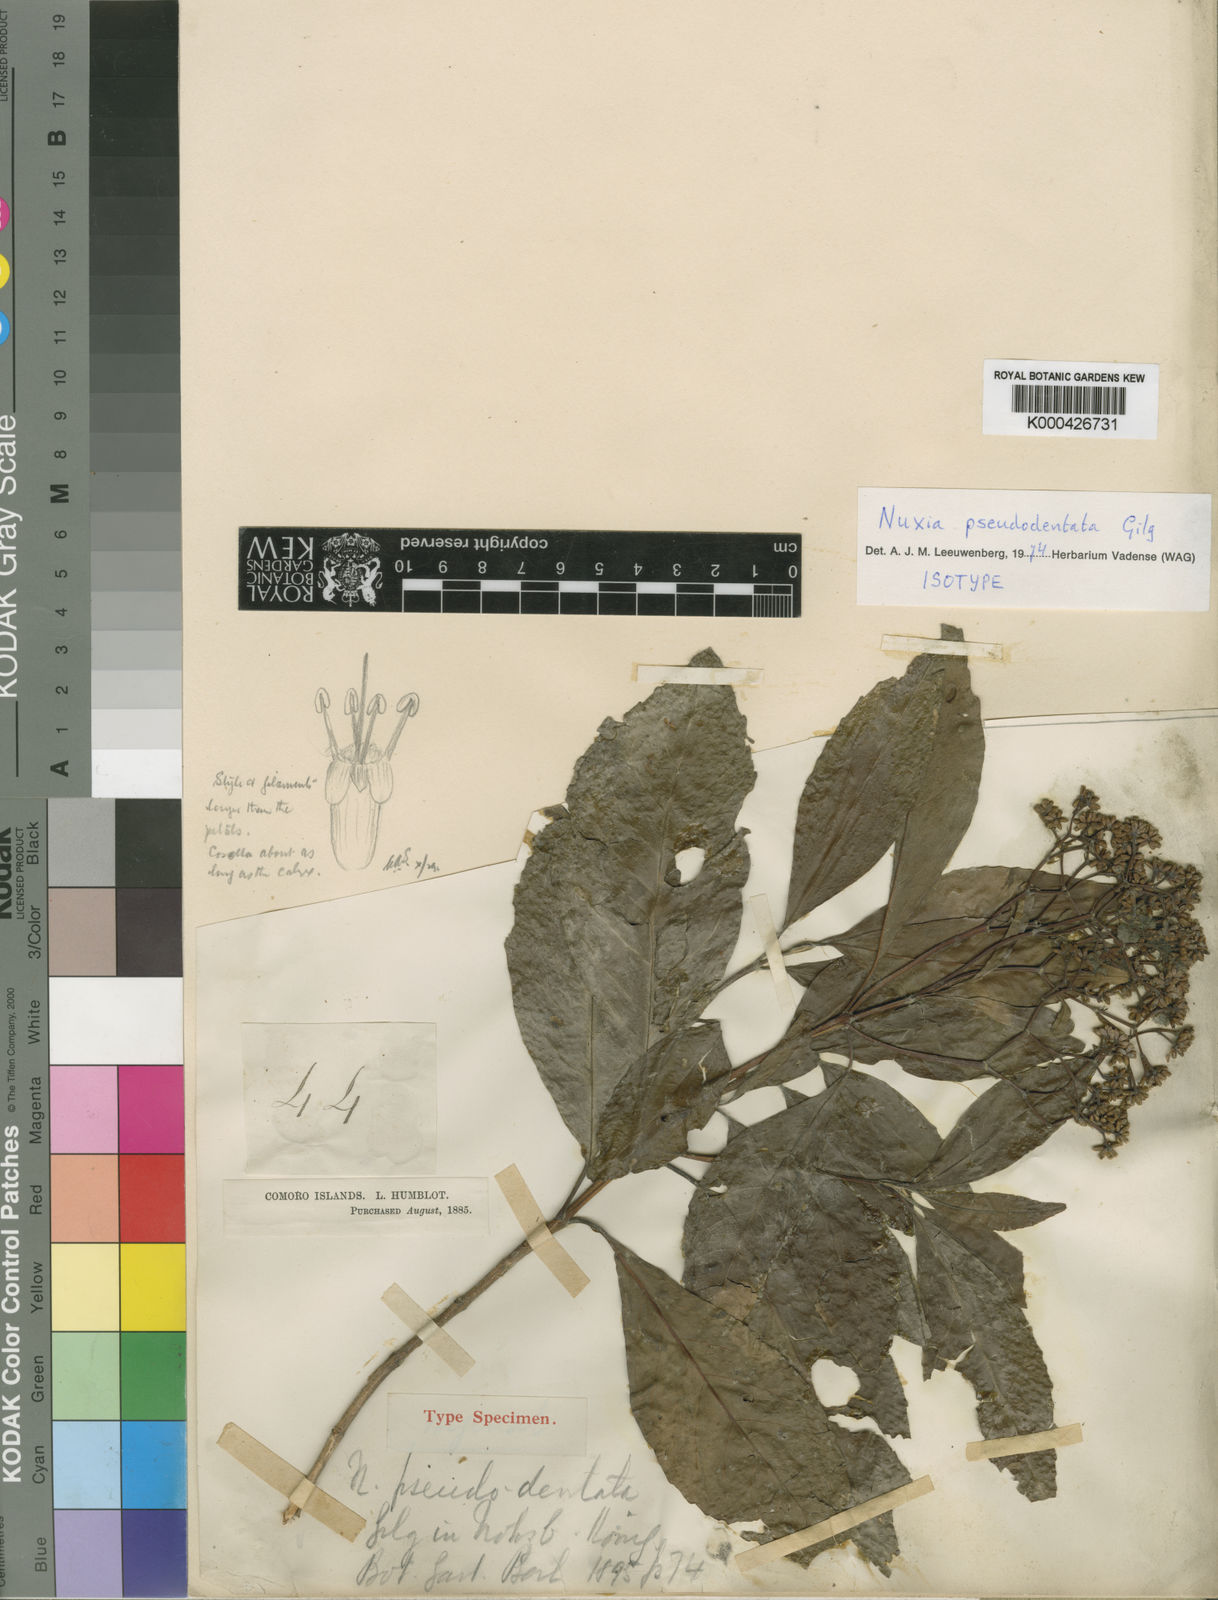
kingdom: Plantae
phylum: Tracheophyta
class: Magnoliopsida
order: Lamiales
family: Stilbaceae
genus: Nuxia
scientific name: Nuxia pseudodentata
